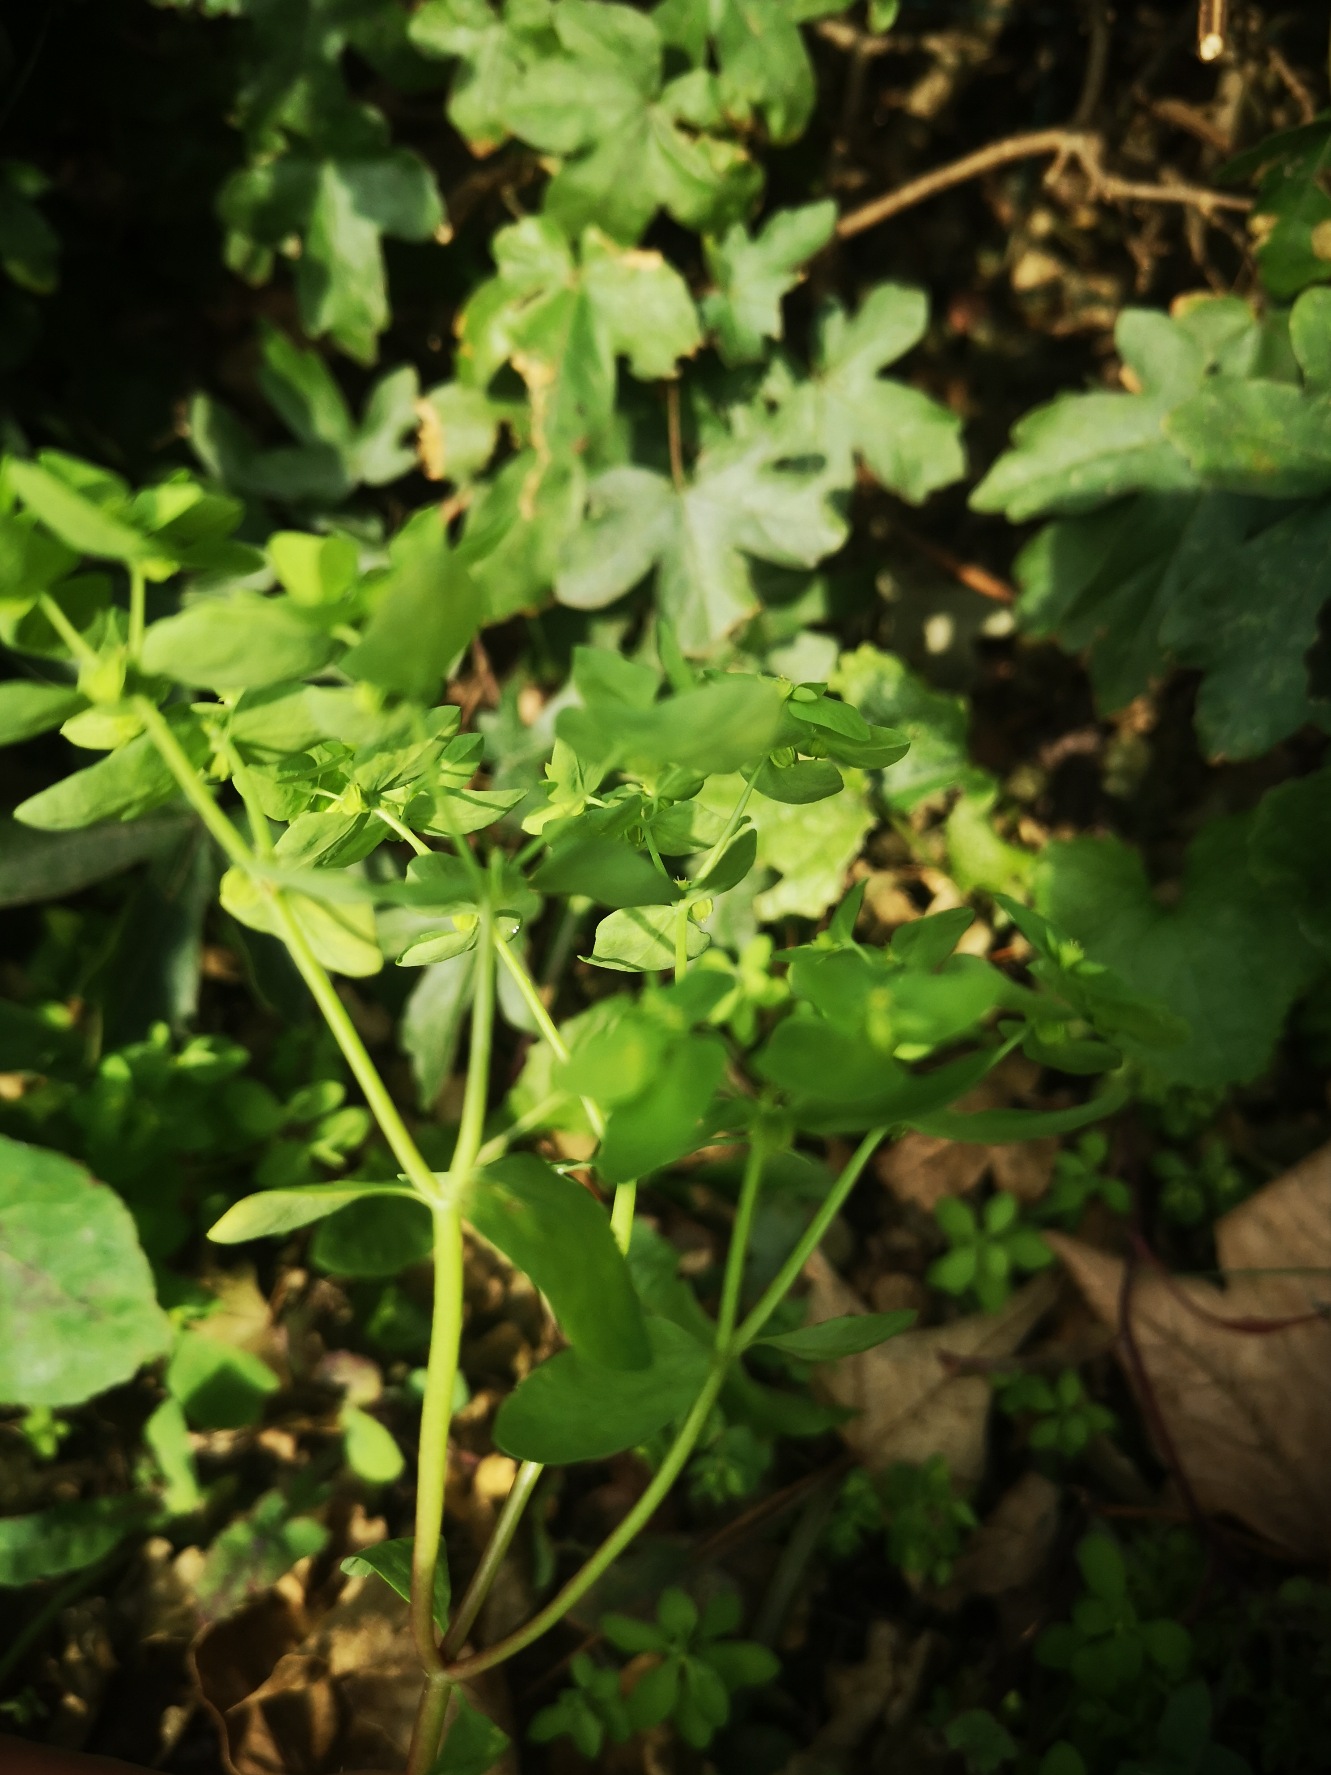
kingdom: Plantae
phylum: Tracheophyta
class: Magnoliopsida
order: Malpighiales
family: Euphorbiaceae
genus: Euphorbia
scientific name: Euphorbia peplus
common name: Gaffel-vortemælk
